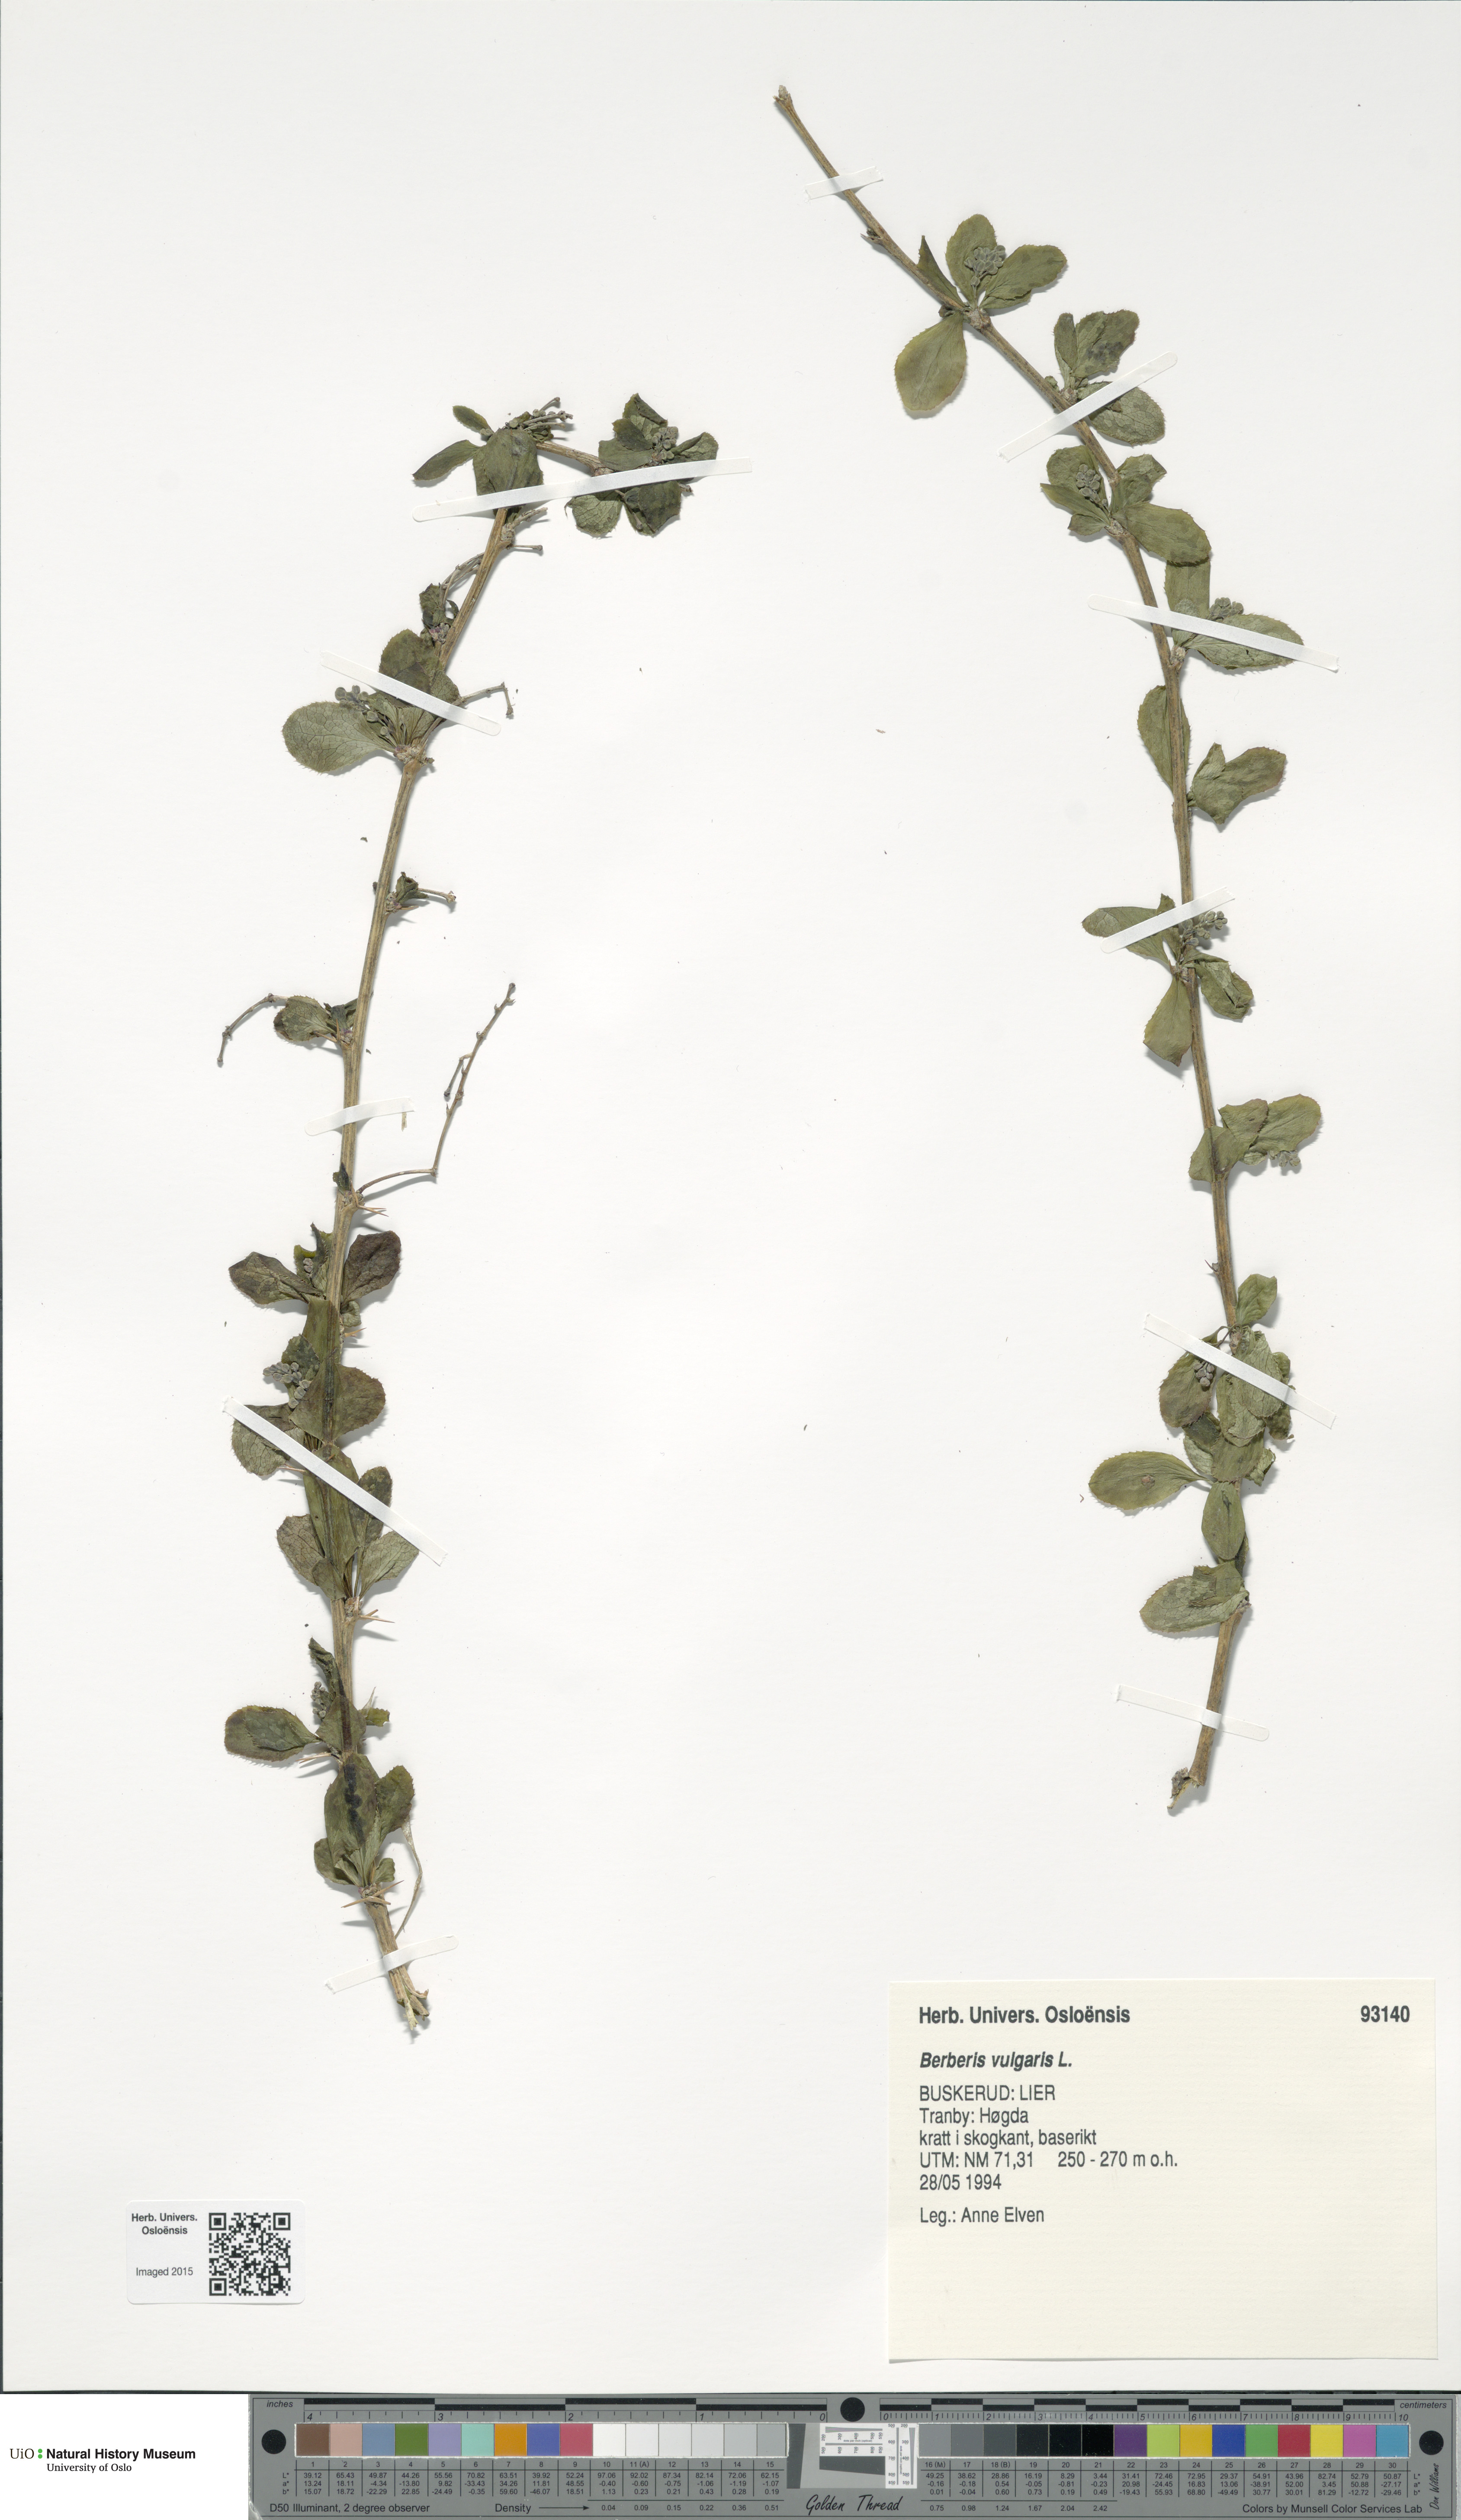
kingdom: Plantae
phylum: Tracheophyta
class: Magnoliopsida
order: Ranunculales
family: Berberidaceae
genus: Berberis
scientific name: Berberis vulgaris
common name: Barberry
